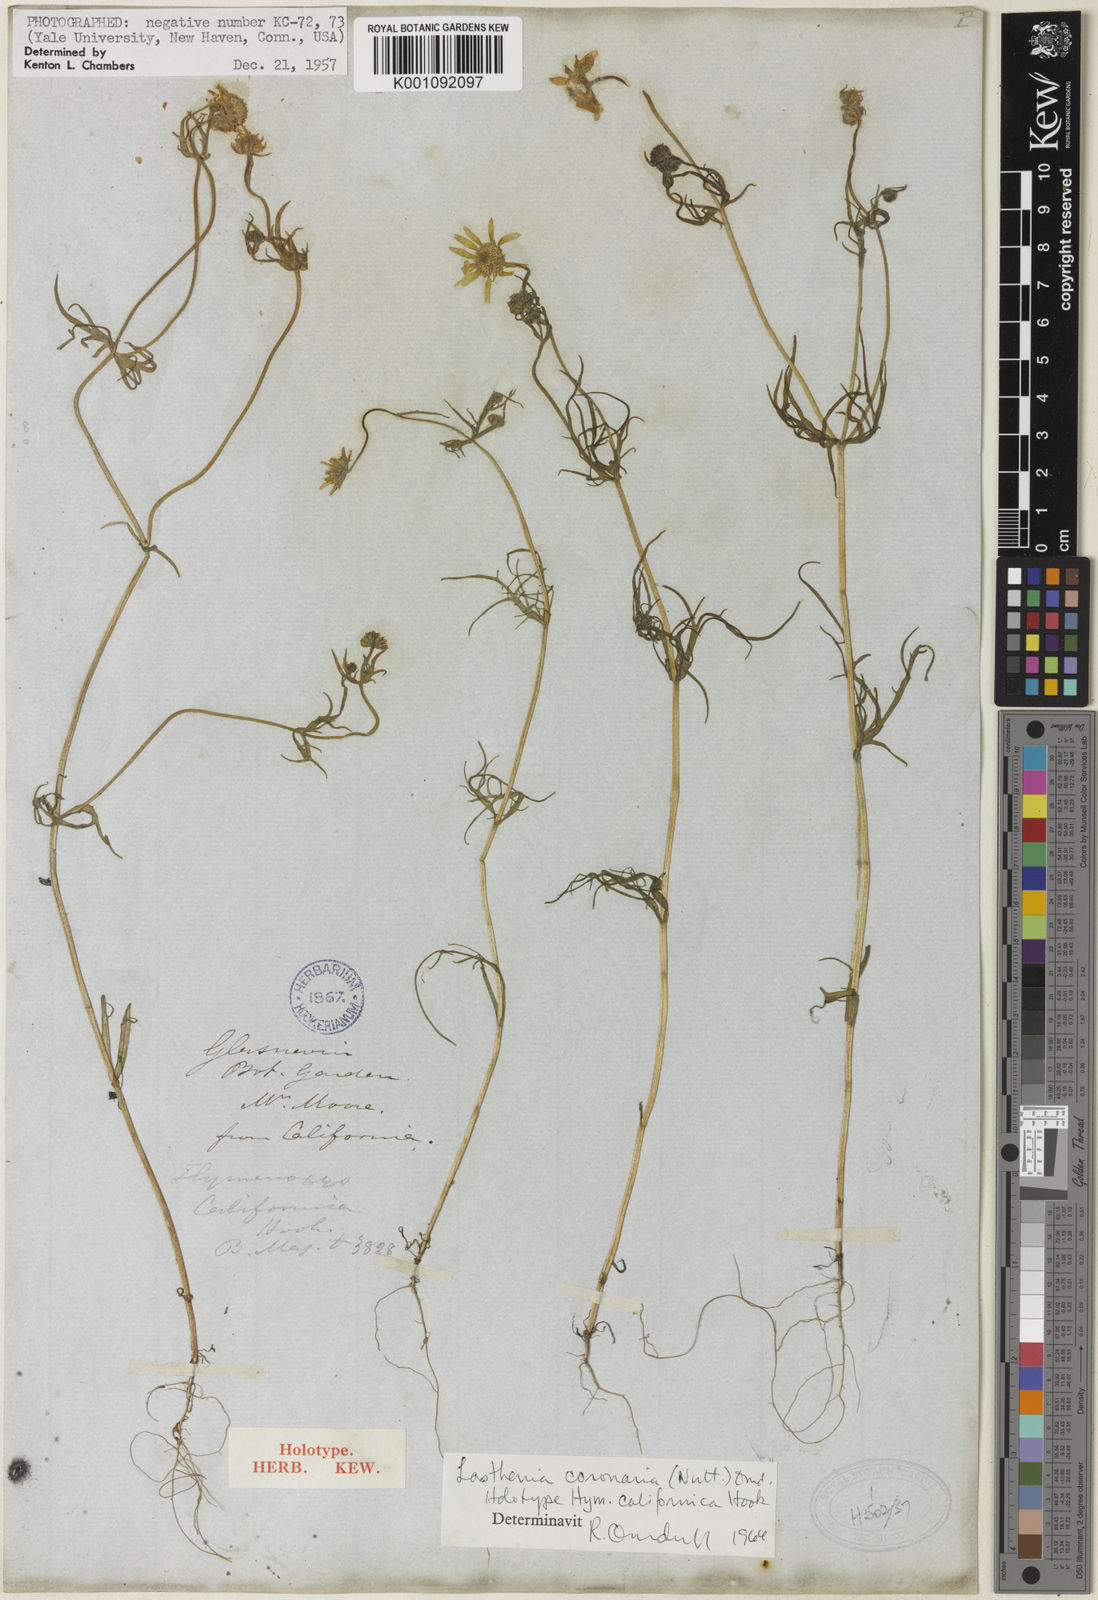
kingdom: Plantae
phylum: Tracheophyta
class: Magnoliopsida
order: Asterales
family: Asteraceae
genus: Lasthenia
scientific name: Lasthenia coronaria
